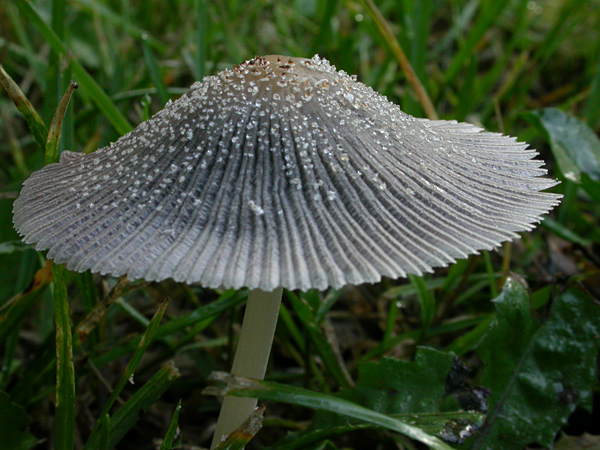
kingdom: Fungi
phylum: Basidiomycota
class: Agaricomycetes
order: Agaricales
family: Psathyrellaceae
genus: Coprinellus
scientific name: Coprinellus domesticus
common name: hus-blækhat
